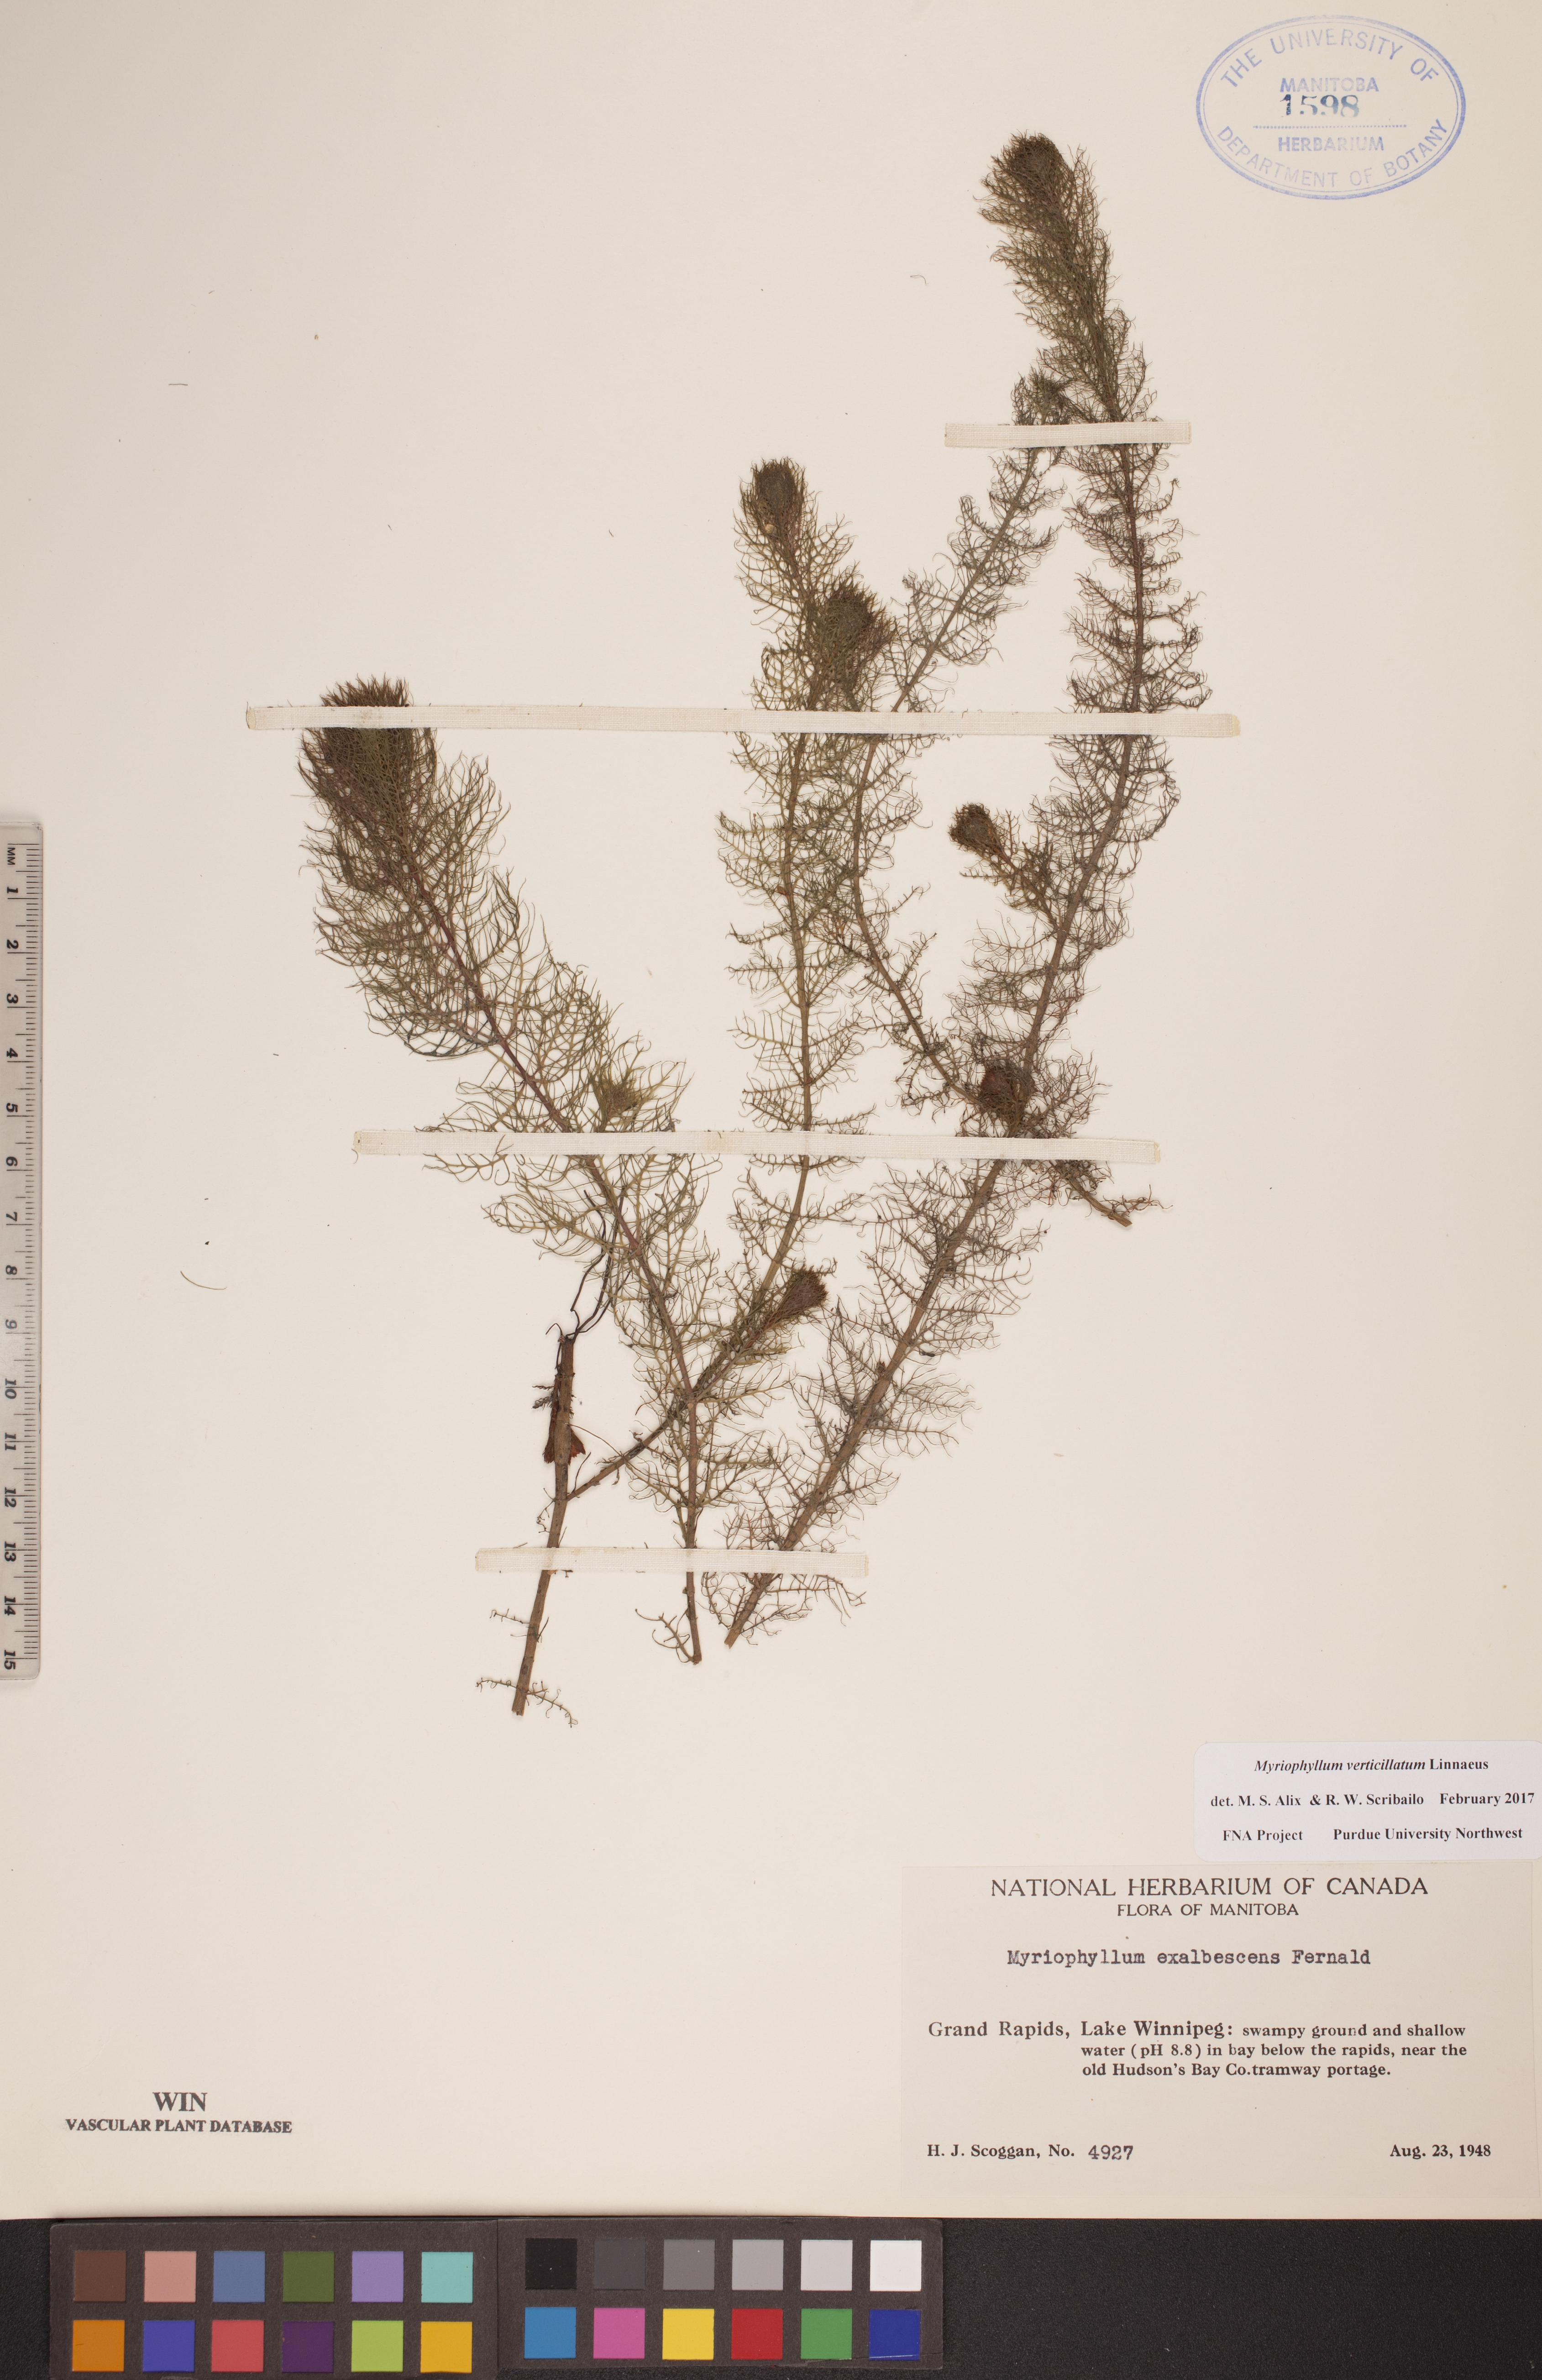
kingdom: Plantae
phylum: Tracheophyta
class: Magnoliopsida
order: Saxifragales
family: Haloragaceae
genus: Myriophyllum
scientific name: Myriophyllum verticillatum
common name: Whorled water-milfoil
